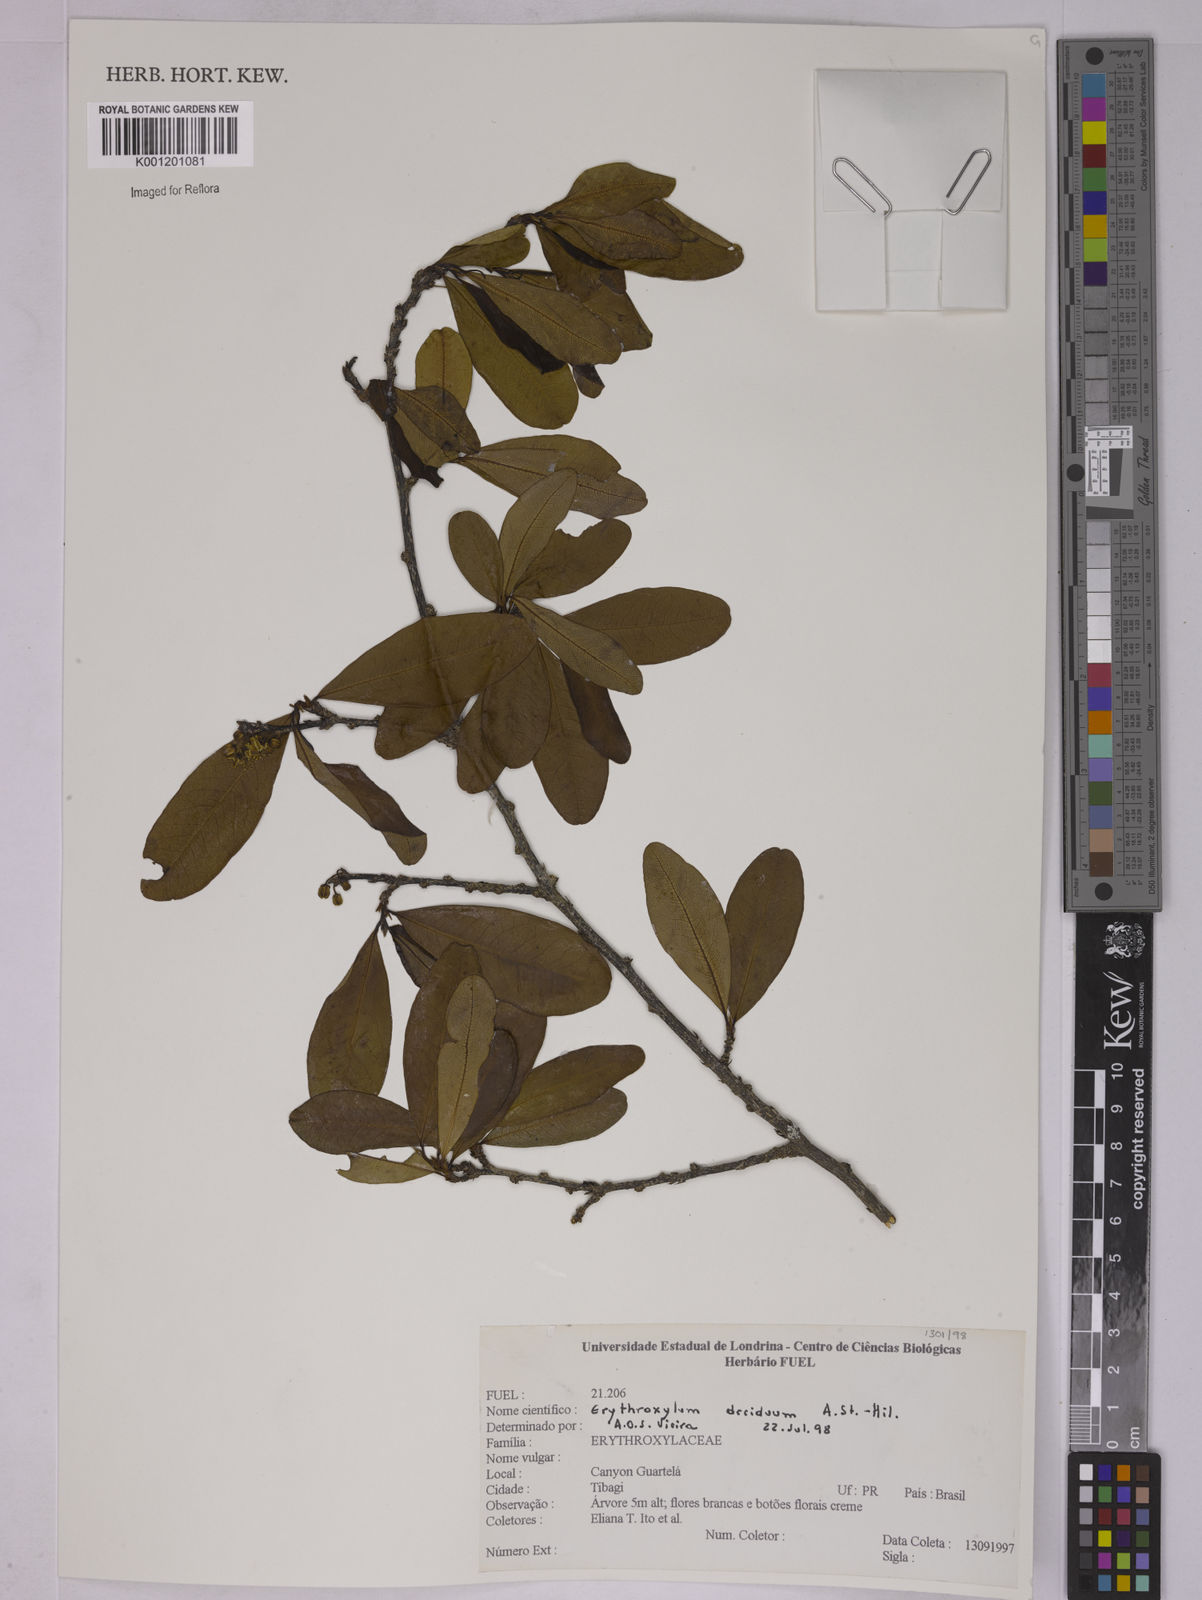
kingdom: Plantae
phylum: Tracheophyta
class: Magnoliopsida
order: Malpighiales
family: Erythroxylaceae
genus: Erythroxylum
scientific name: Erythroxylum deciduum
